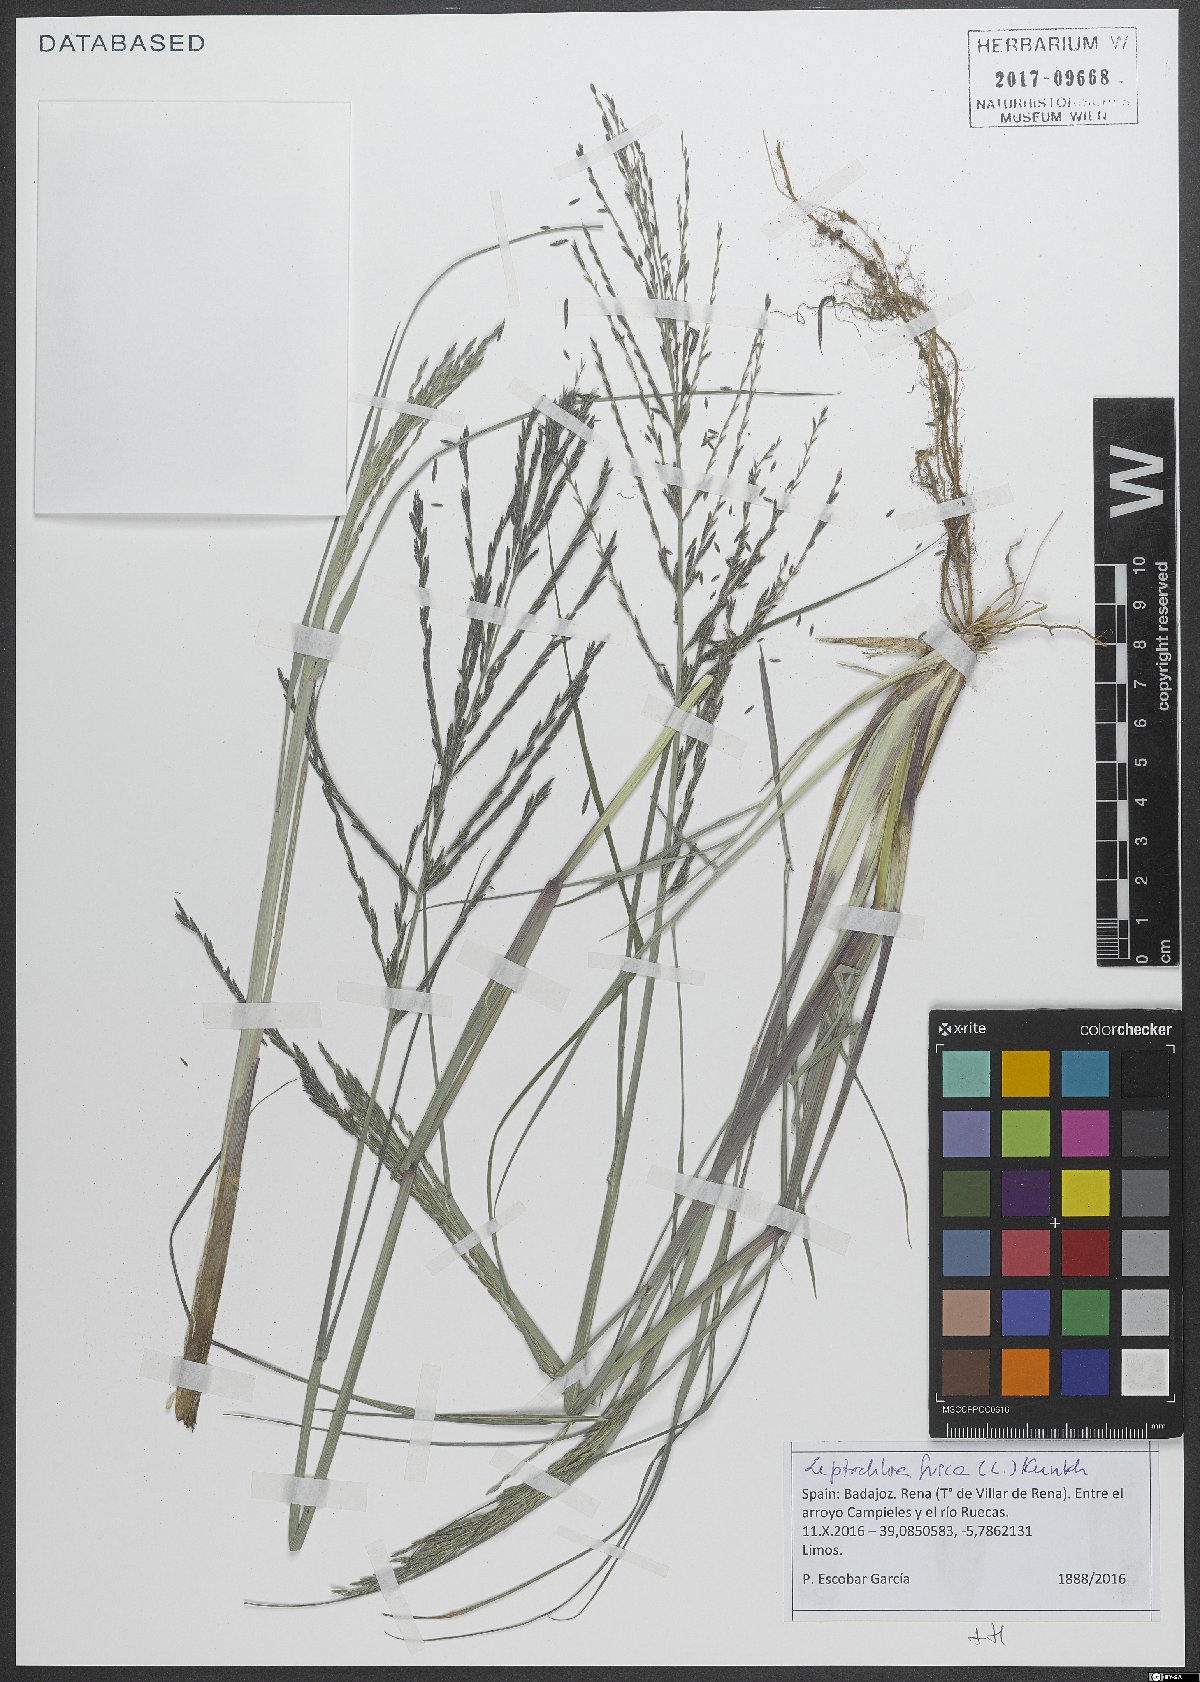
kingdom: Plantae
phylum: Tracheophyta
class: Liliopsida
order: Poales
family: Poaceae
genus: Diplachne
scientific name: Diplachne fusca
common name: Brown beetle grass
